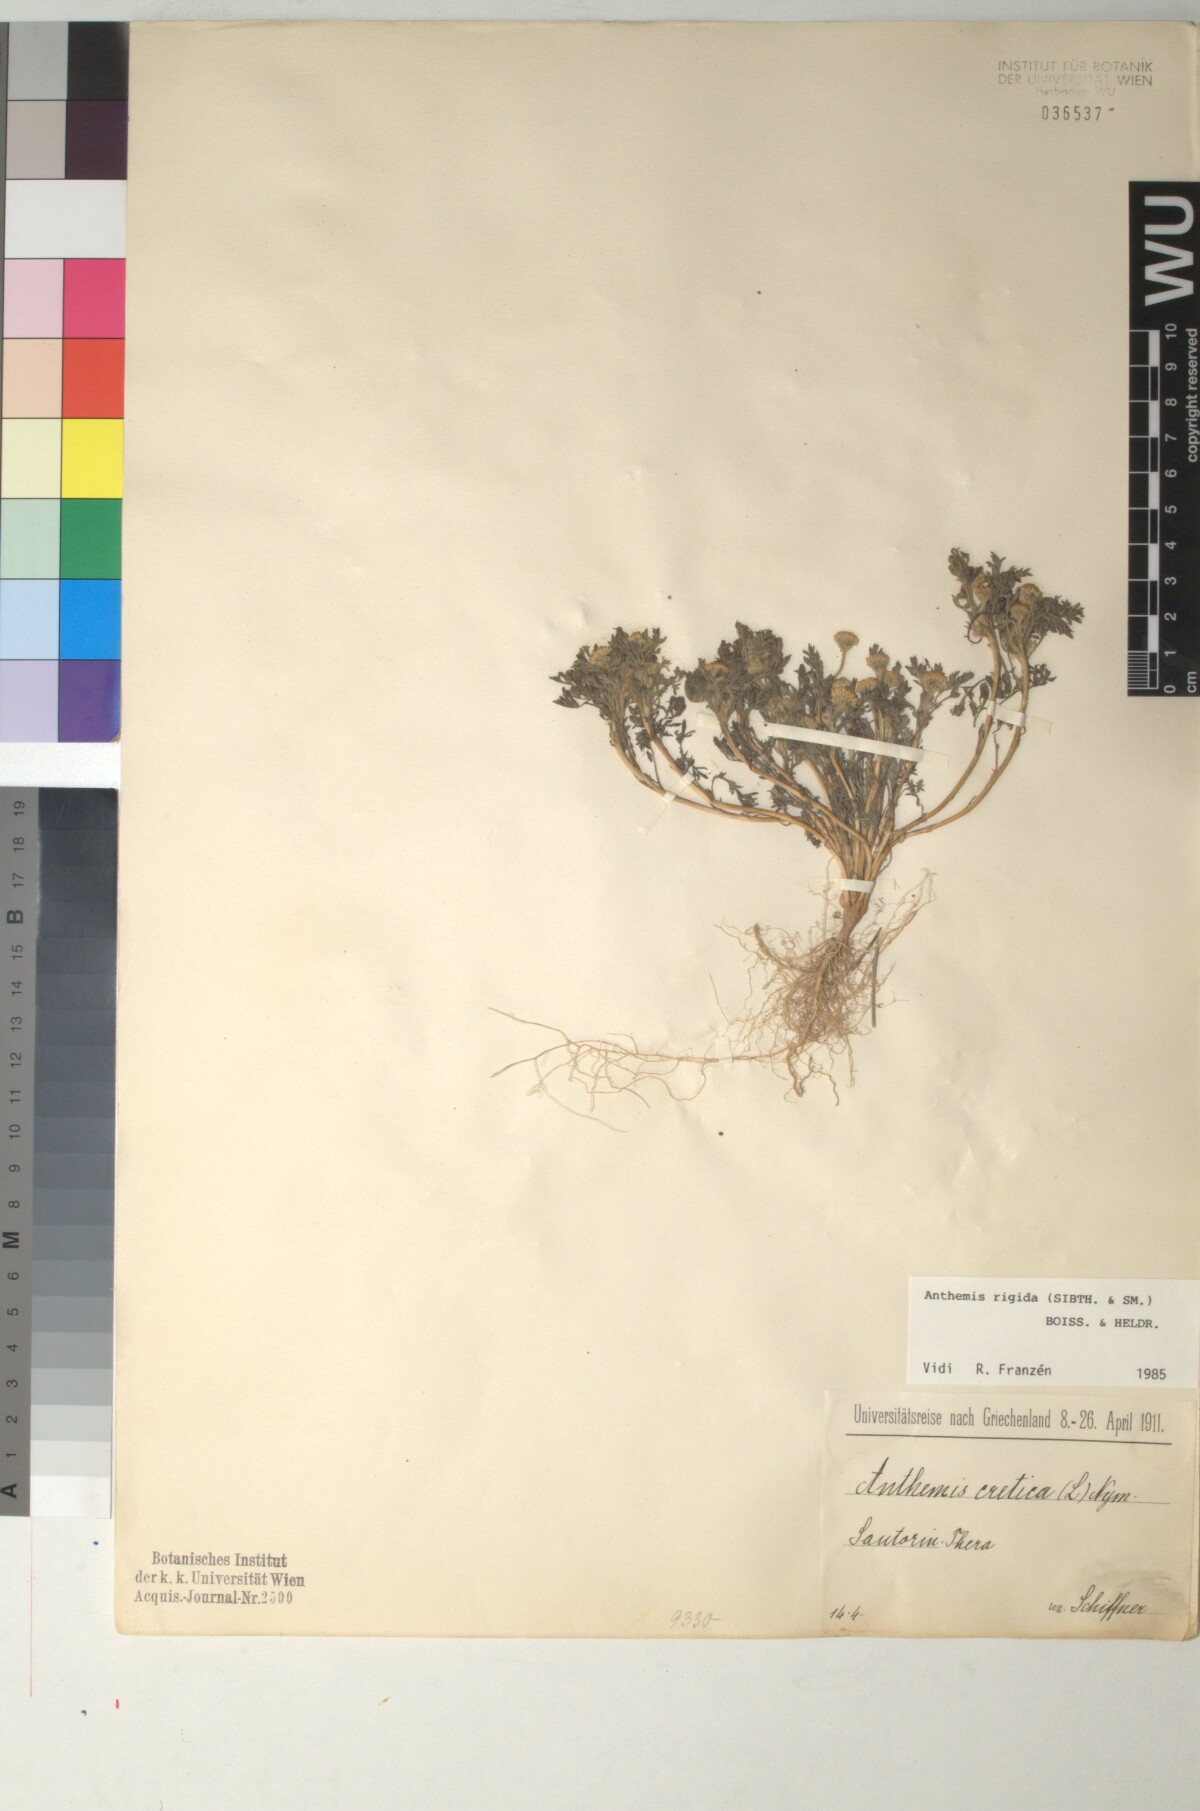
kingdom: Plantae
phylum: Tracheophyta
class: Magnoliopsida
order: Asterales
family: Asteraceae
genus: Anthemis
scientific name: Anthemis rigida
